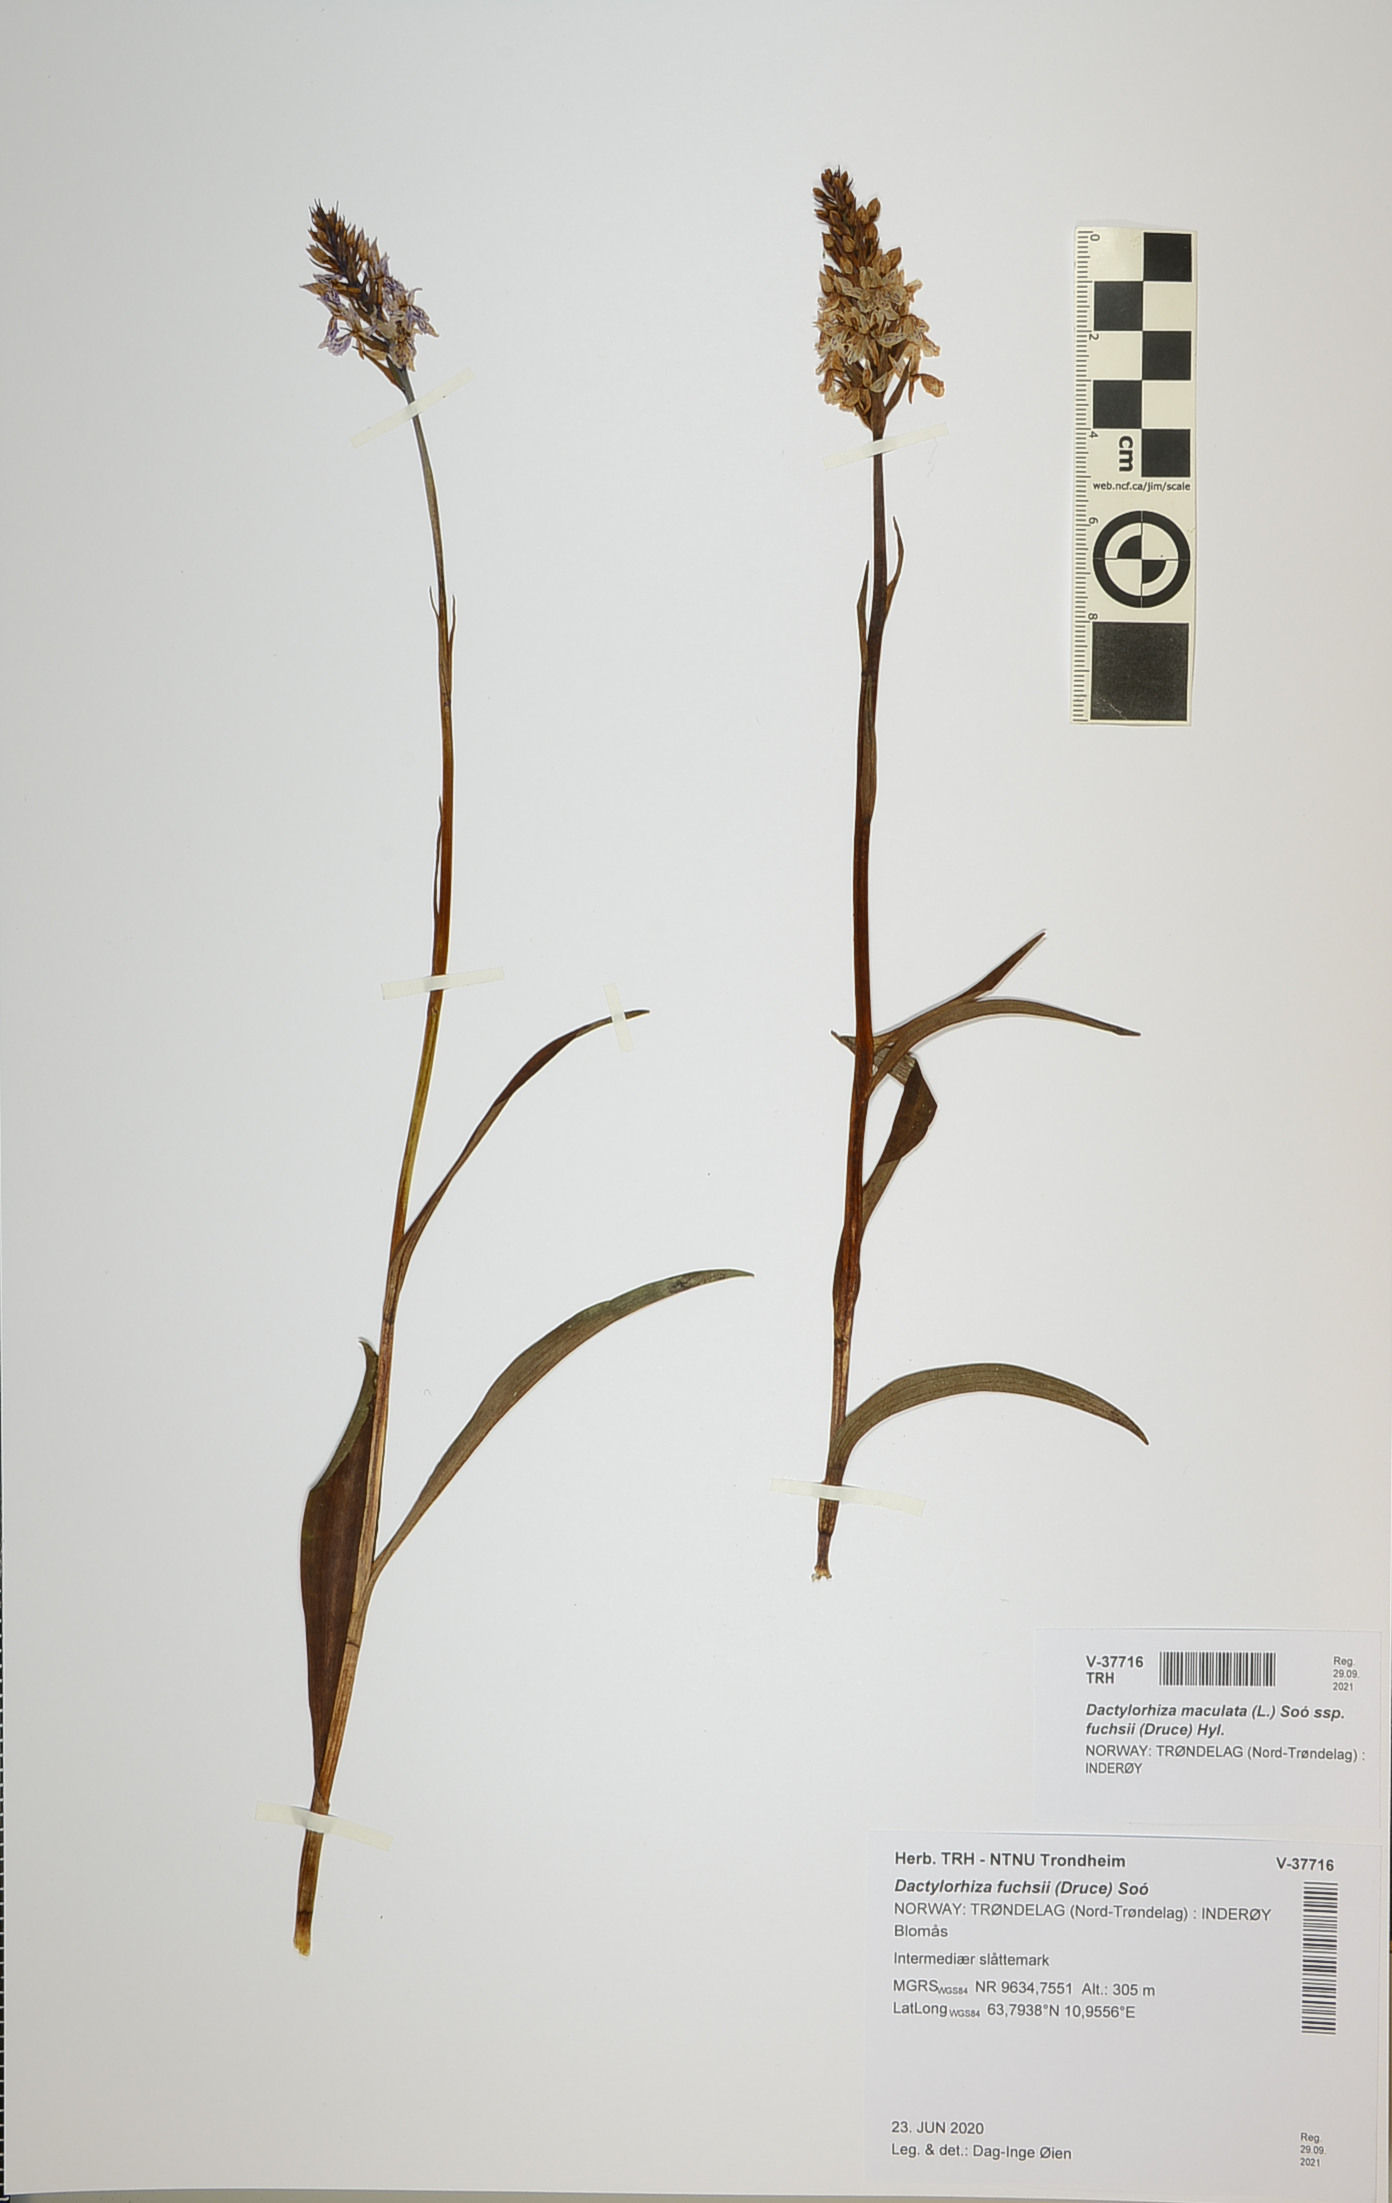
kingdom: Plantae
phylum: Tracheophyta
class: Liliopsida
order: Asparagales
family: Orchidaceae
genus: Dactylorhiza
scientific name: Dactylorhiza maculata
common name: Heath spotted-orchid
